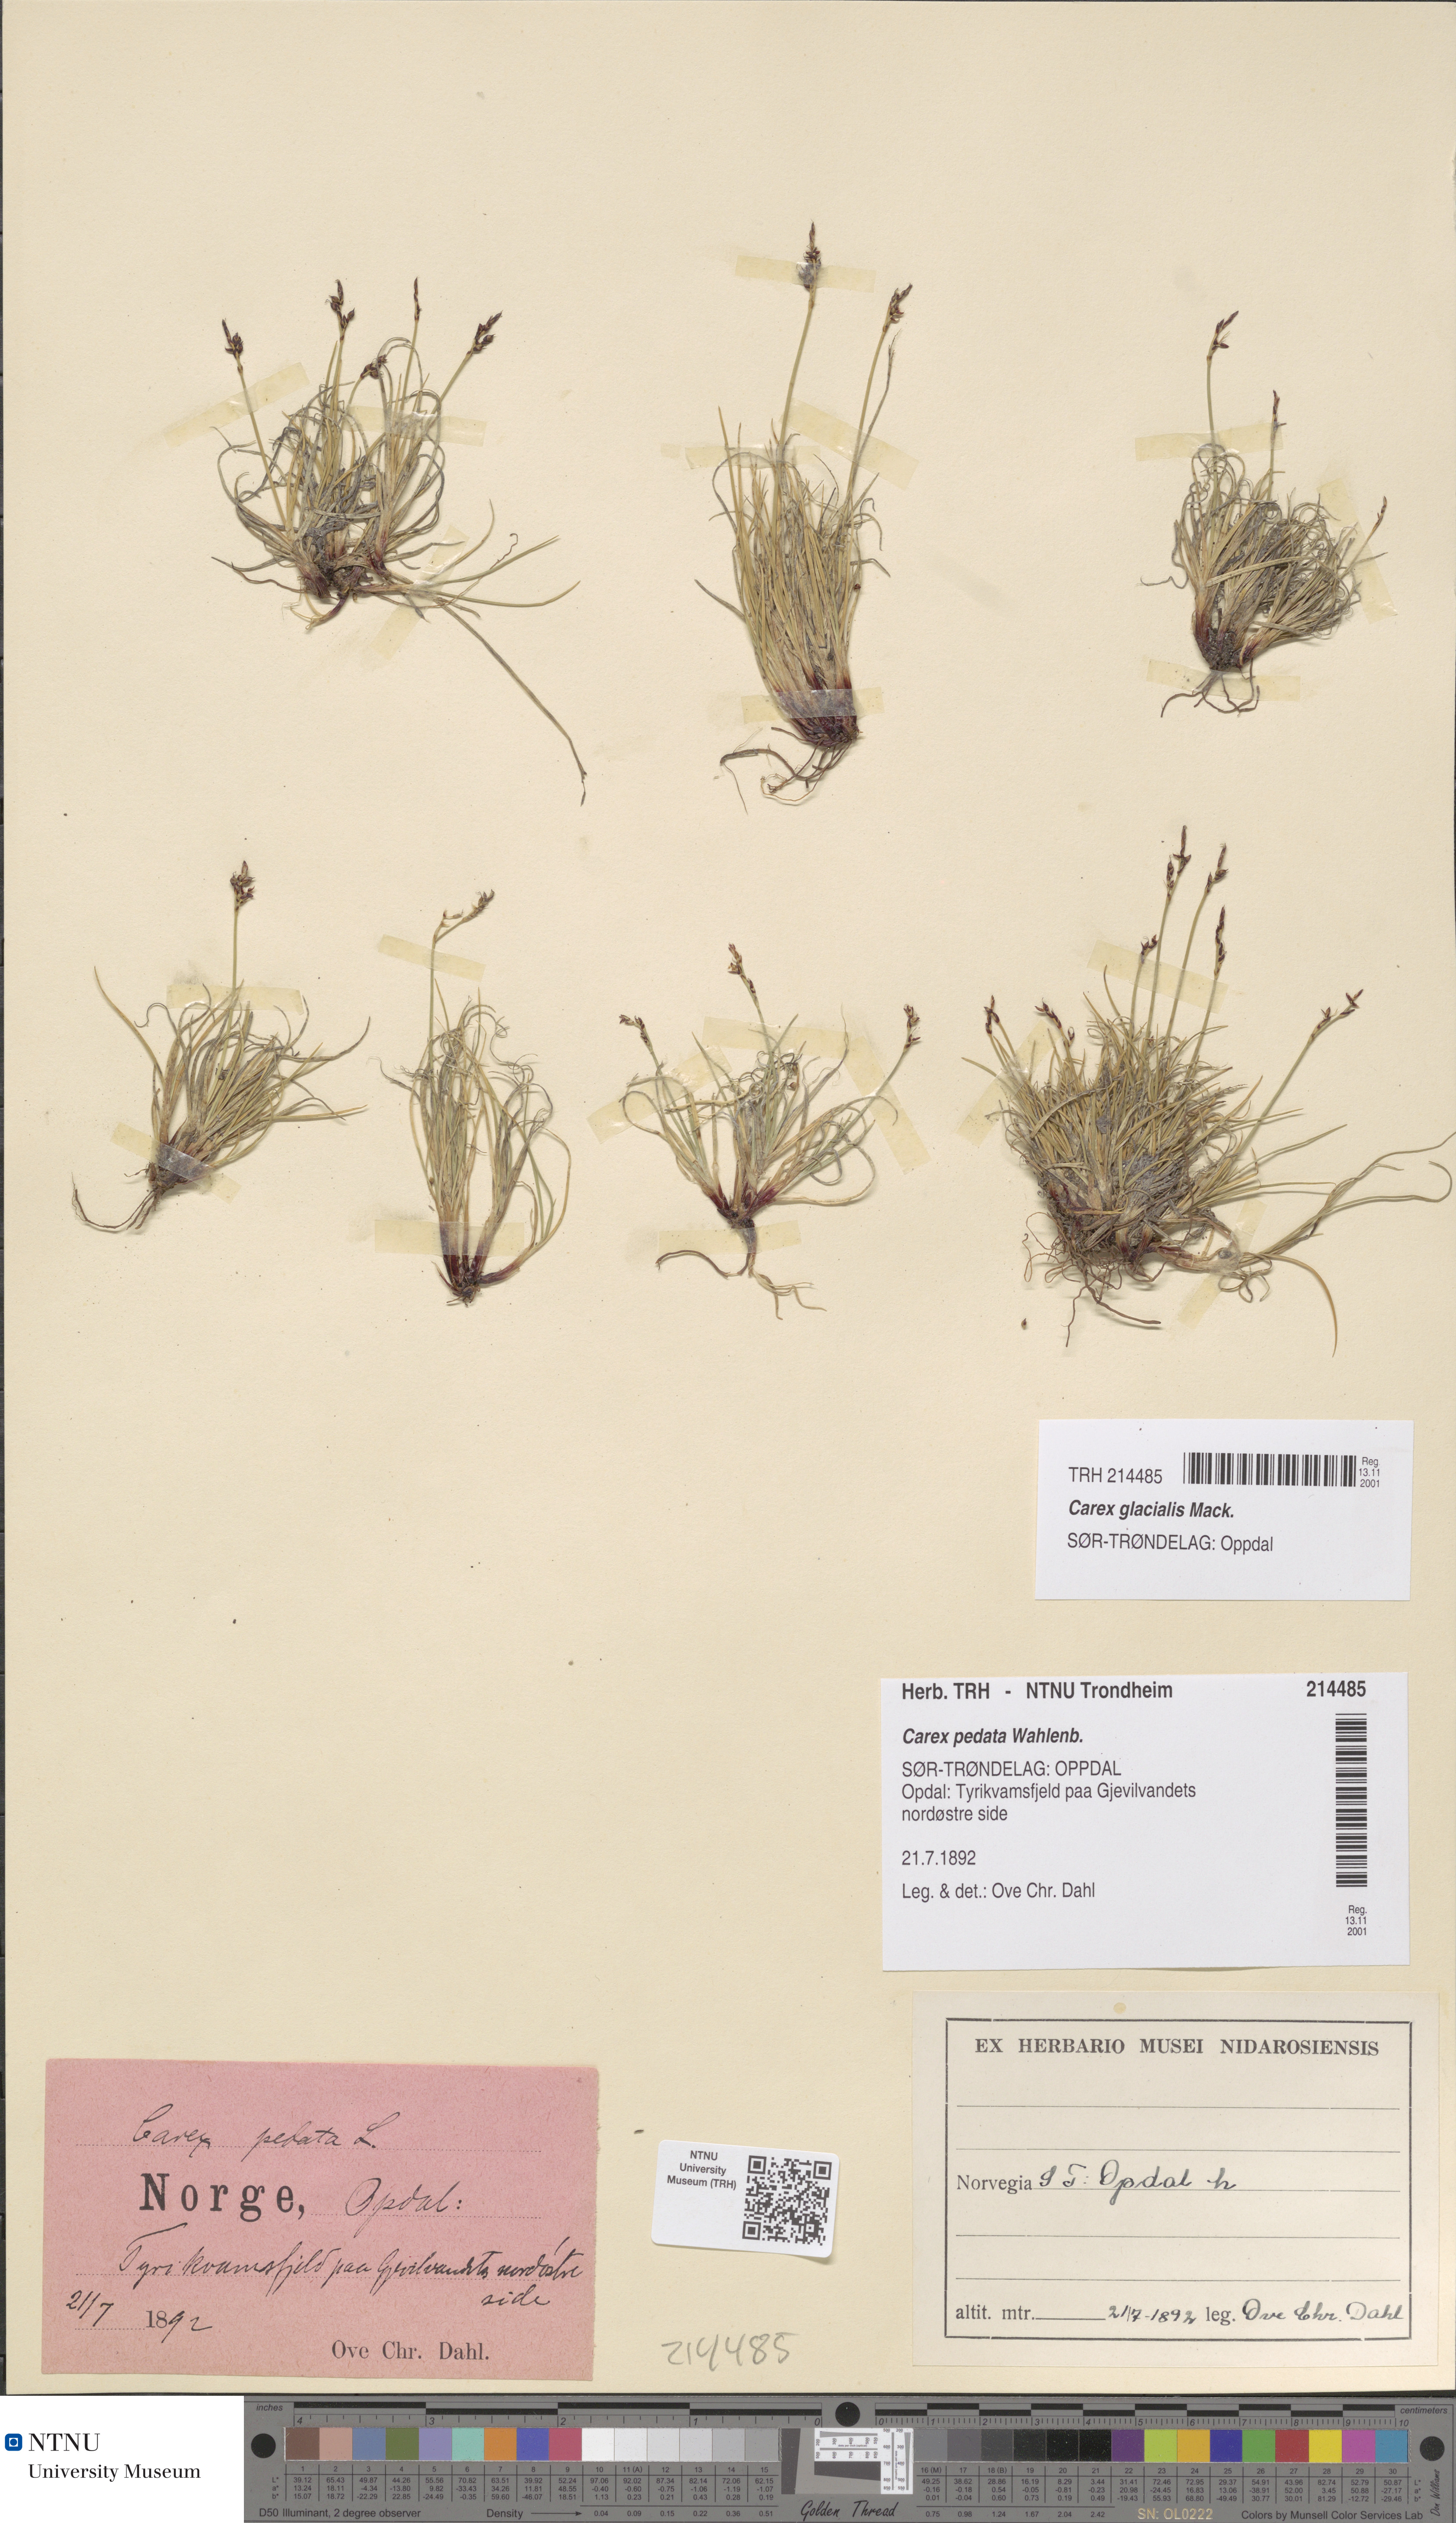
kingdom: Plantae
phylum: Tracheophyta
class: Liliopsida
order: Poales
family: Cyperaceae
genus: Carex
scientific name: Carex glacialis
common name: Newfoundland sedge
